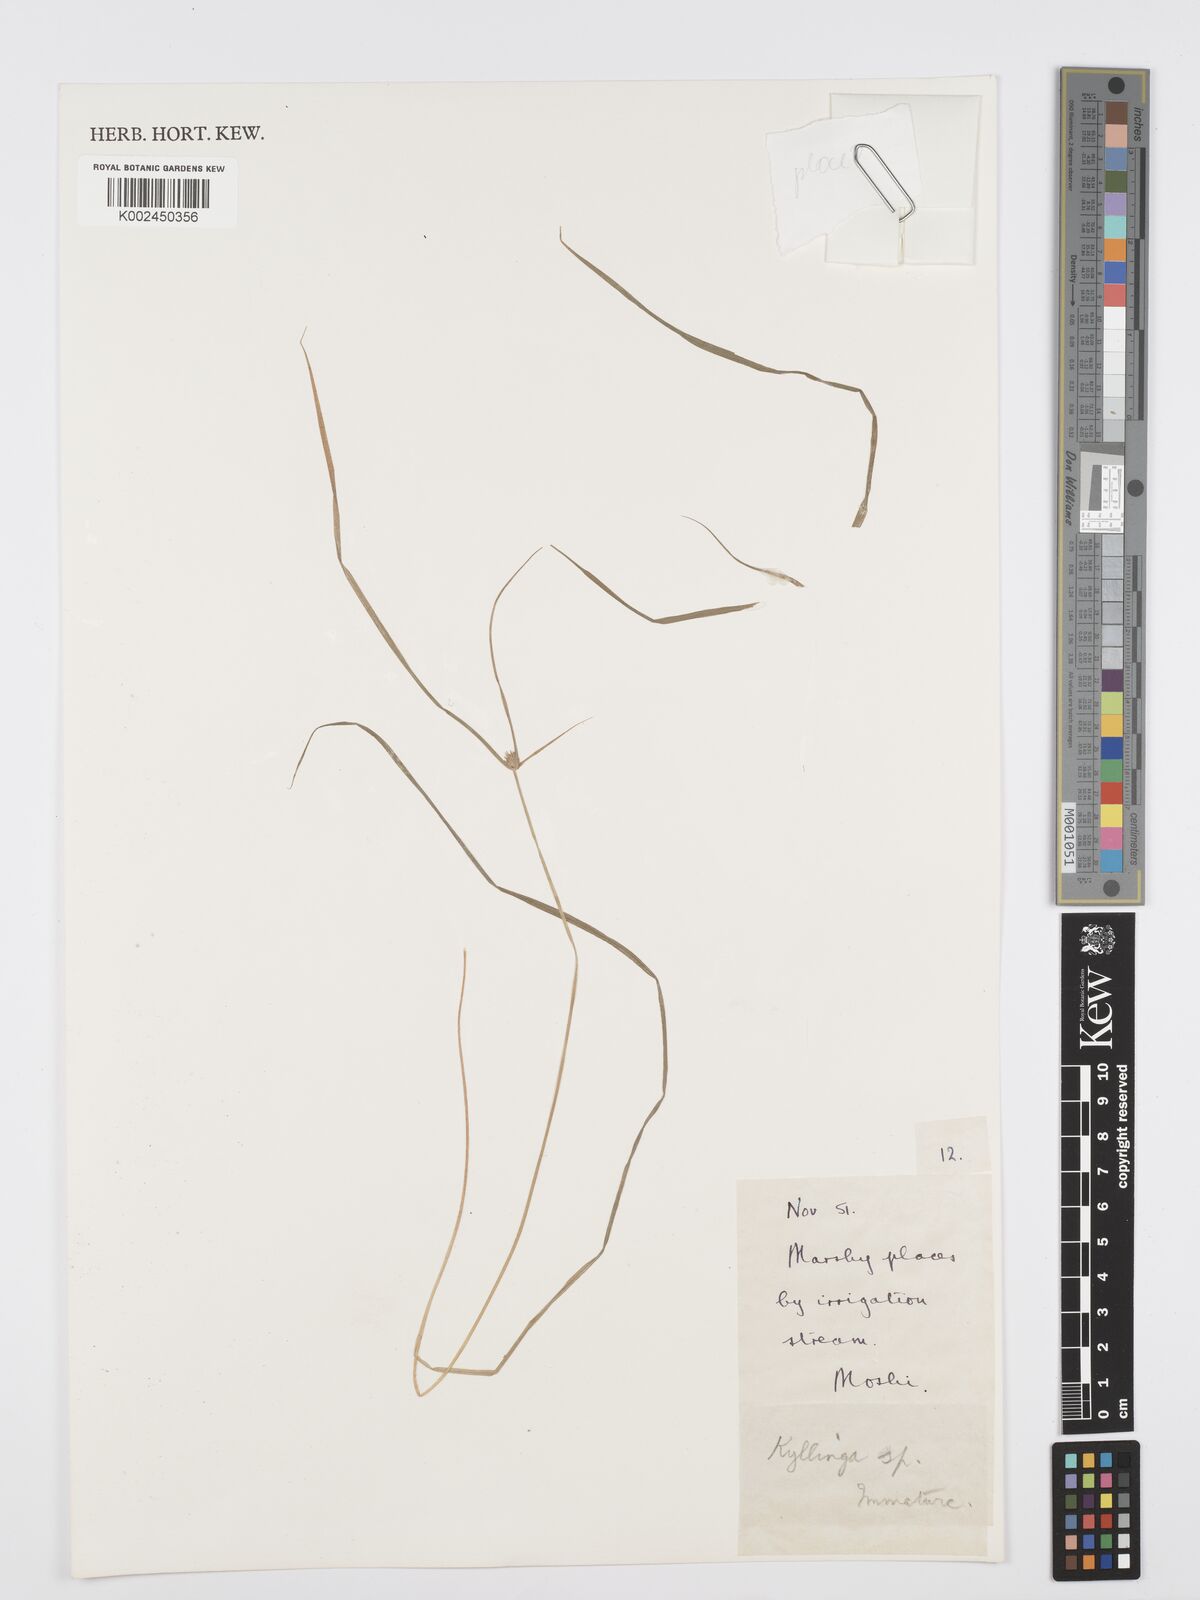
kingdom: Plantae
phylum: Tracheophyta
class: Liliopsida
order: Poales
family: Cyperaceae
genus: Cyperus
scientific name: Cyperus
